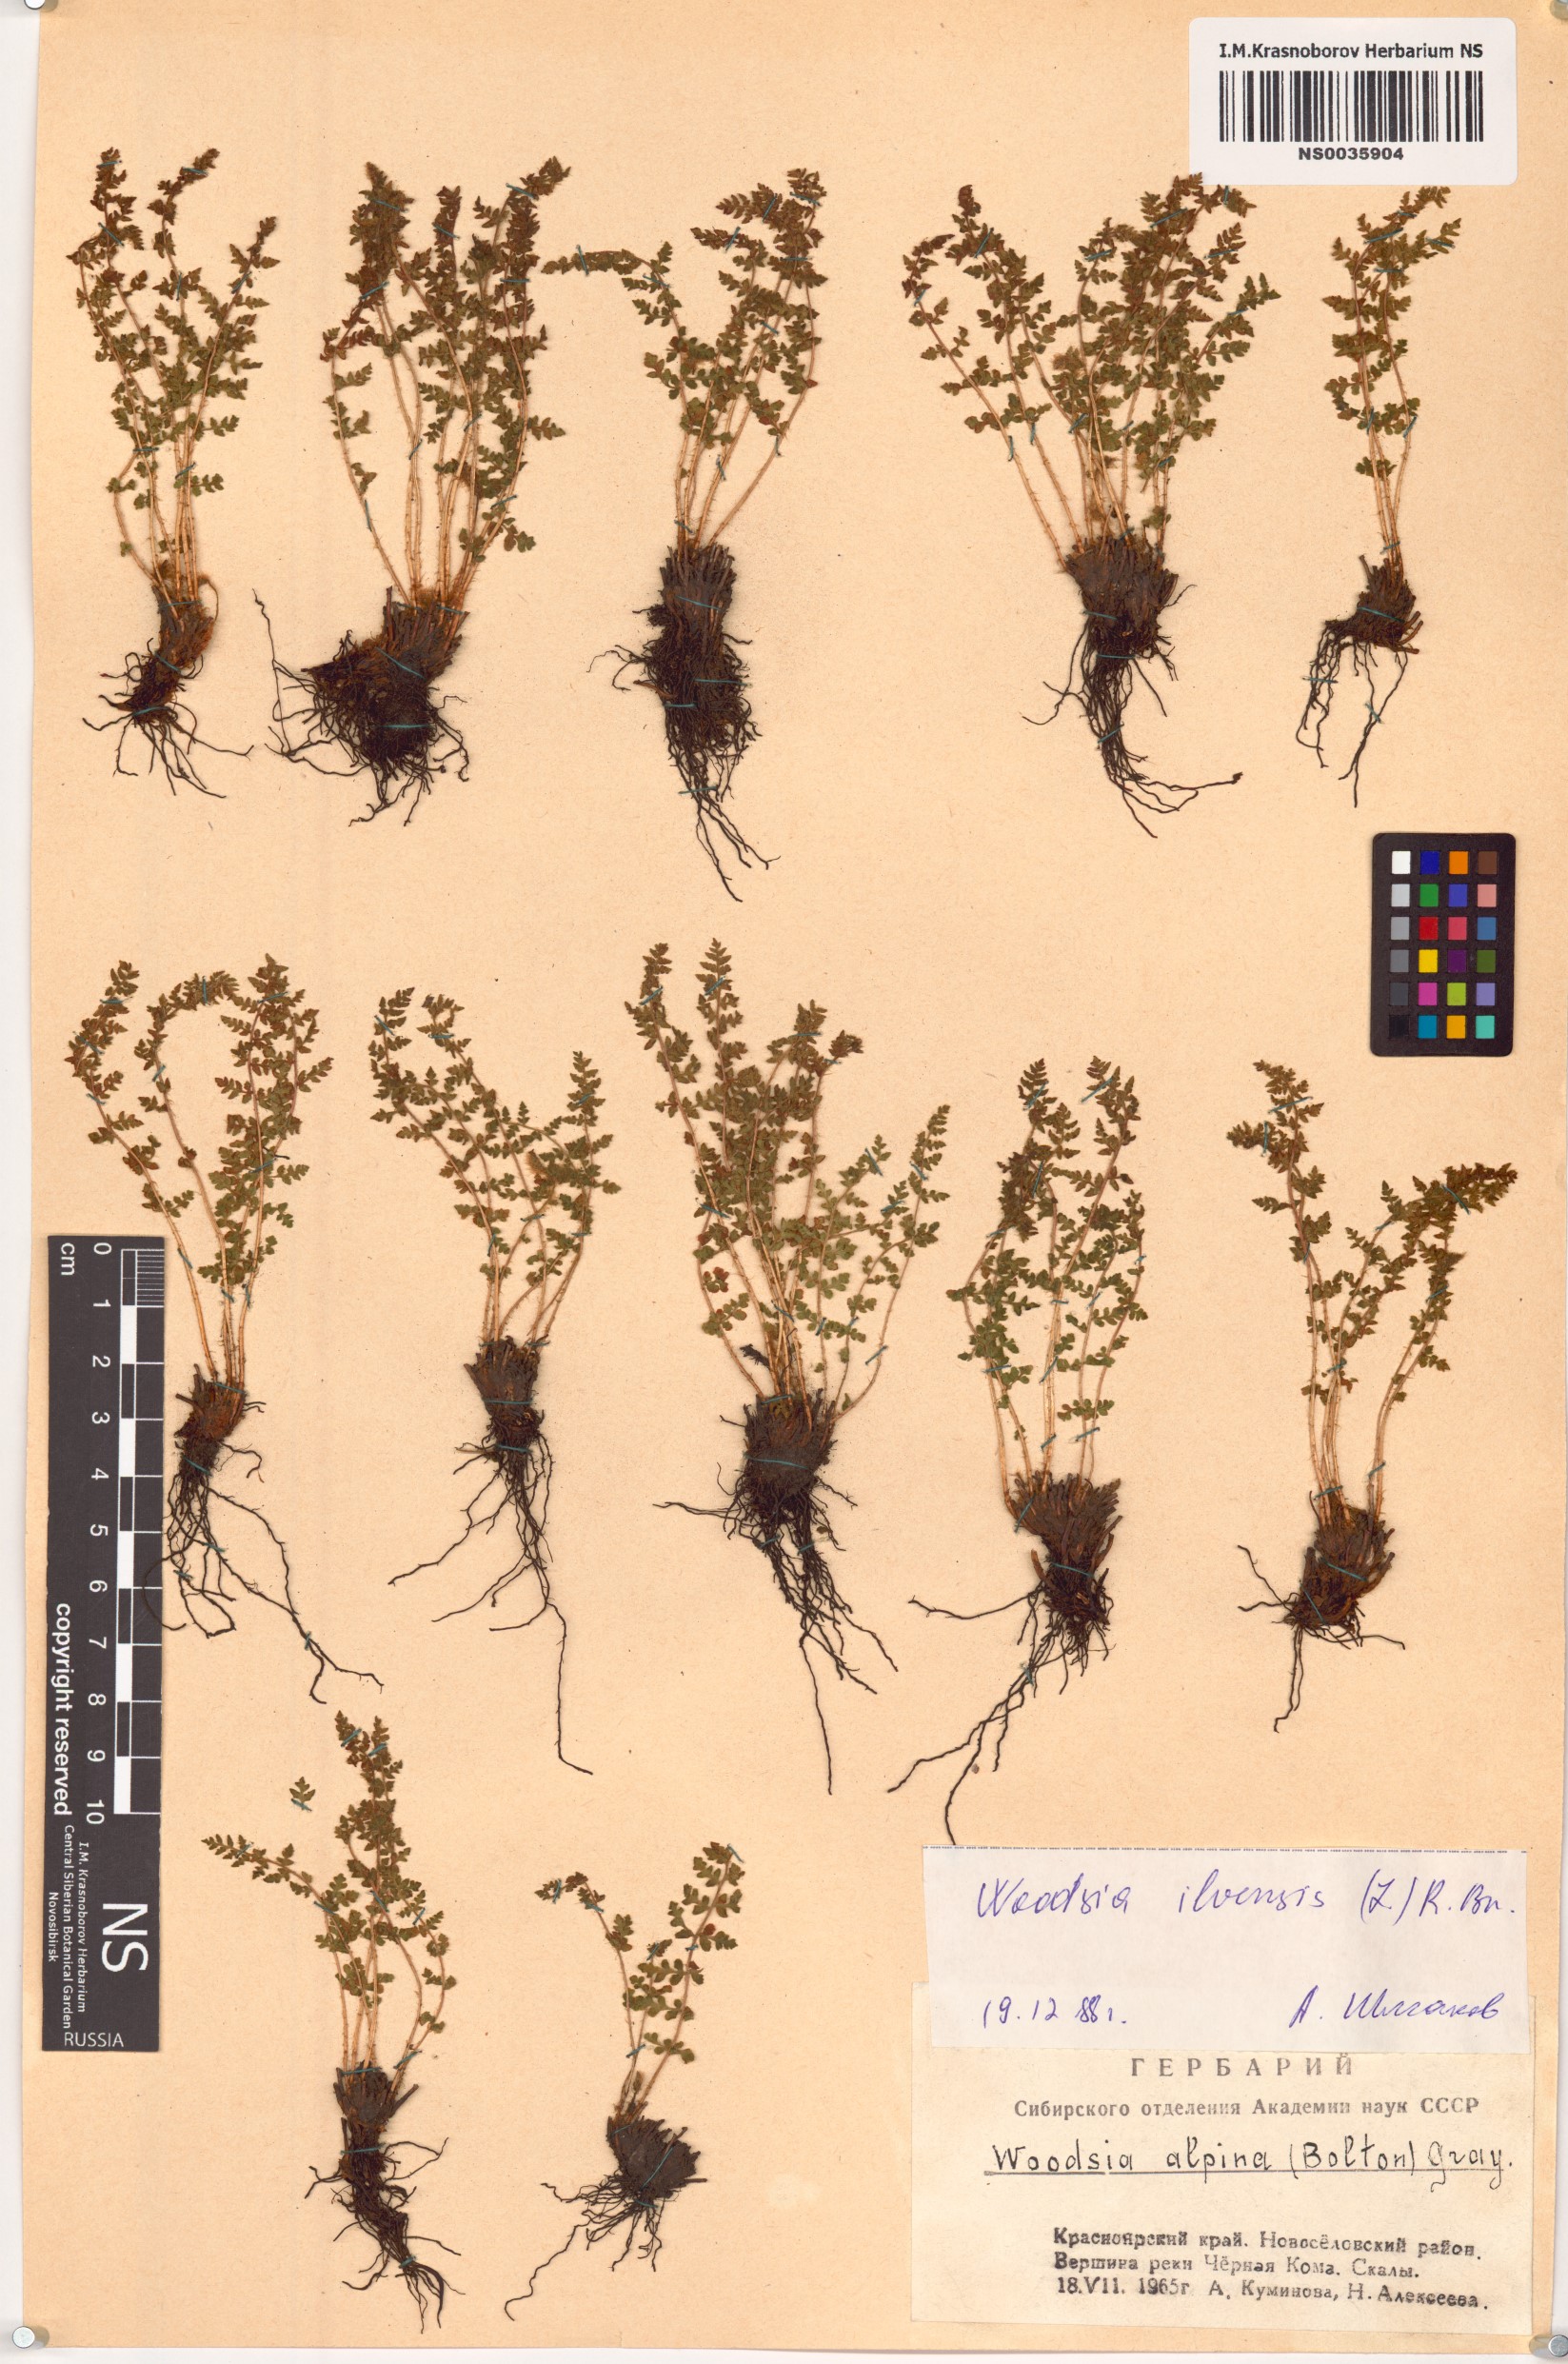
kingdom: Plantae
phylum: Tracheophyta
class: Polypodiopsida
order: Polypodiales
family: Woodsiaceae
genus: Woodsia
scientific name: Woodsia ilvensis
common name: Fragrant woodsia
